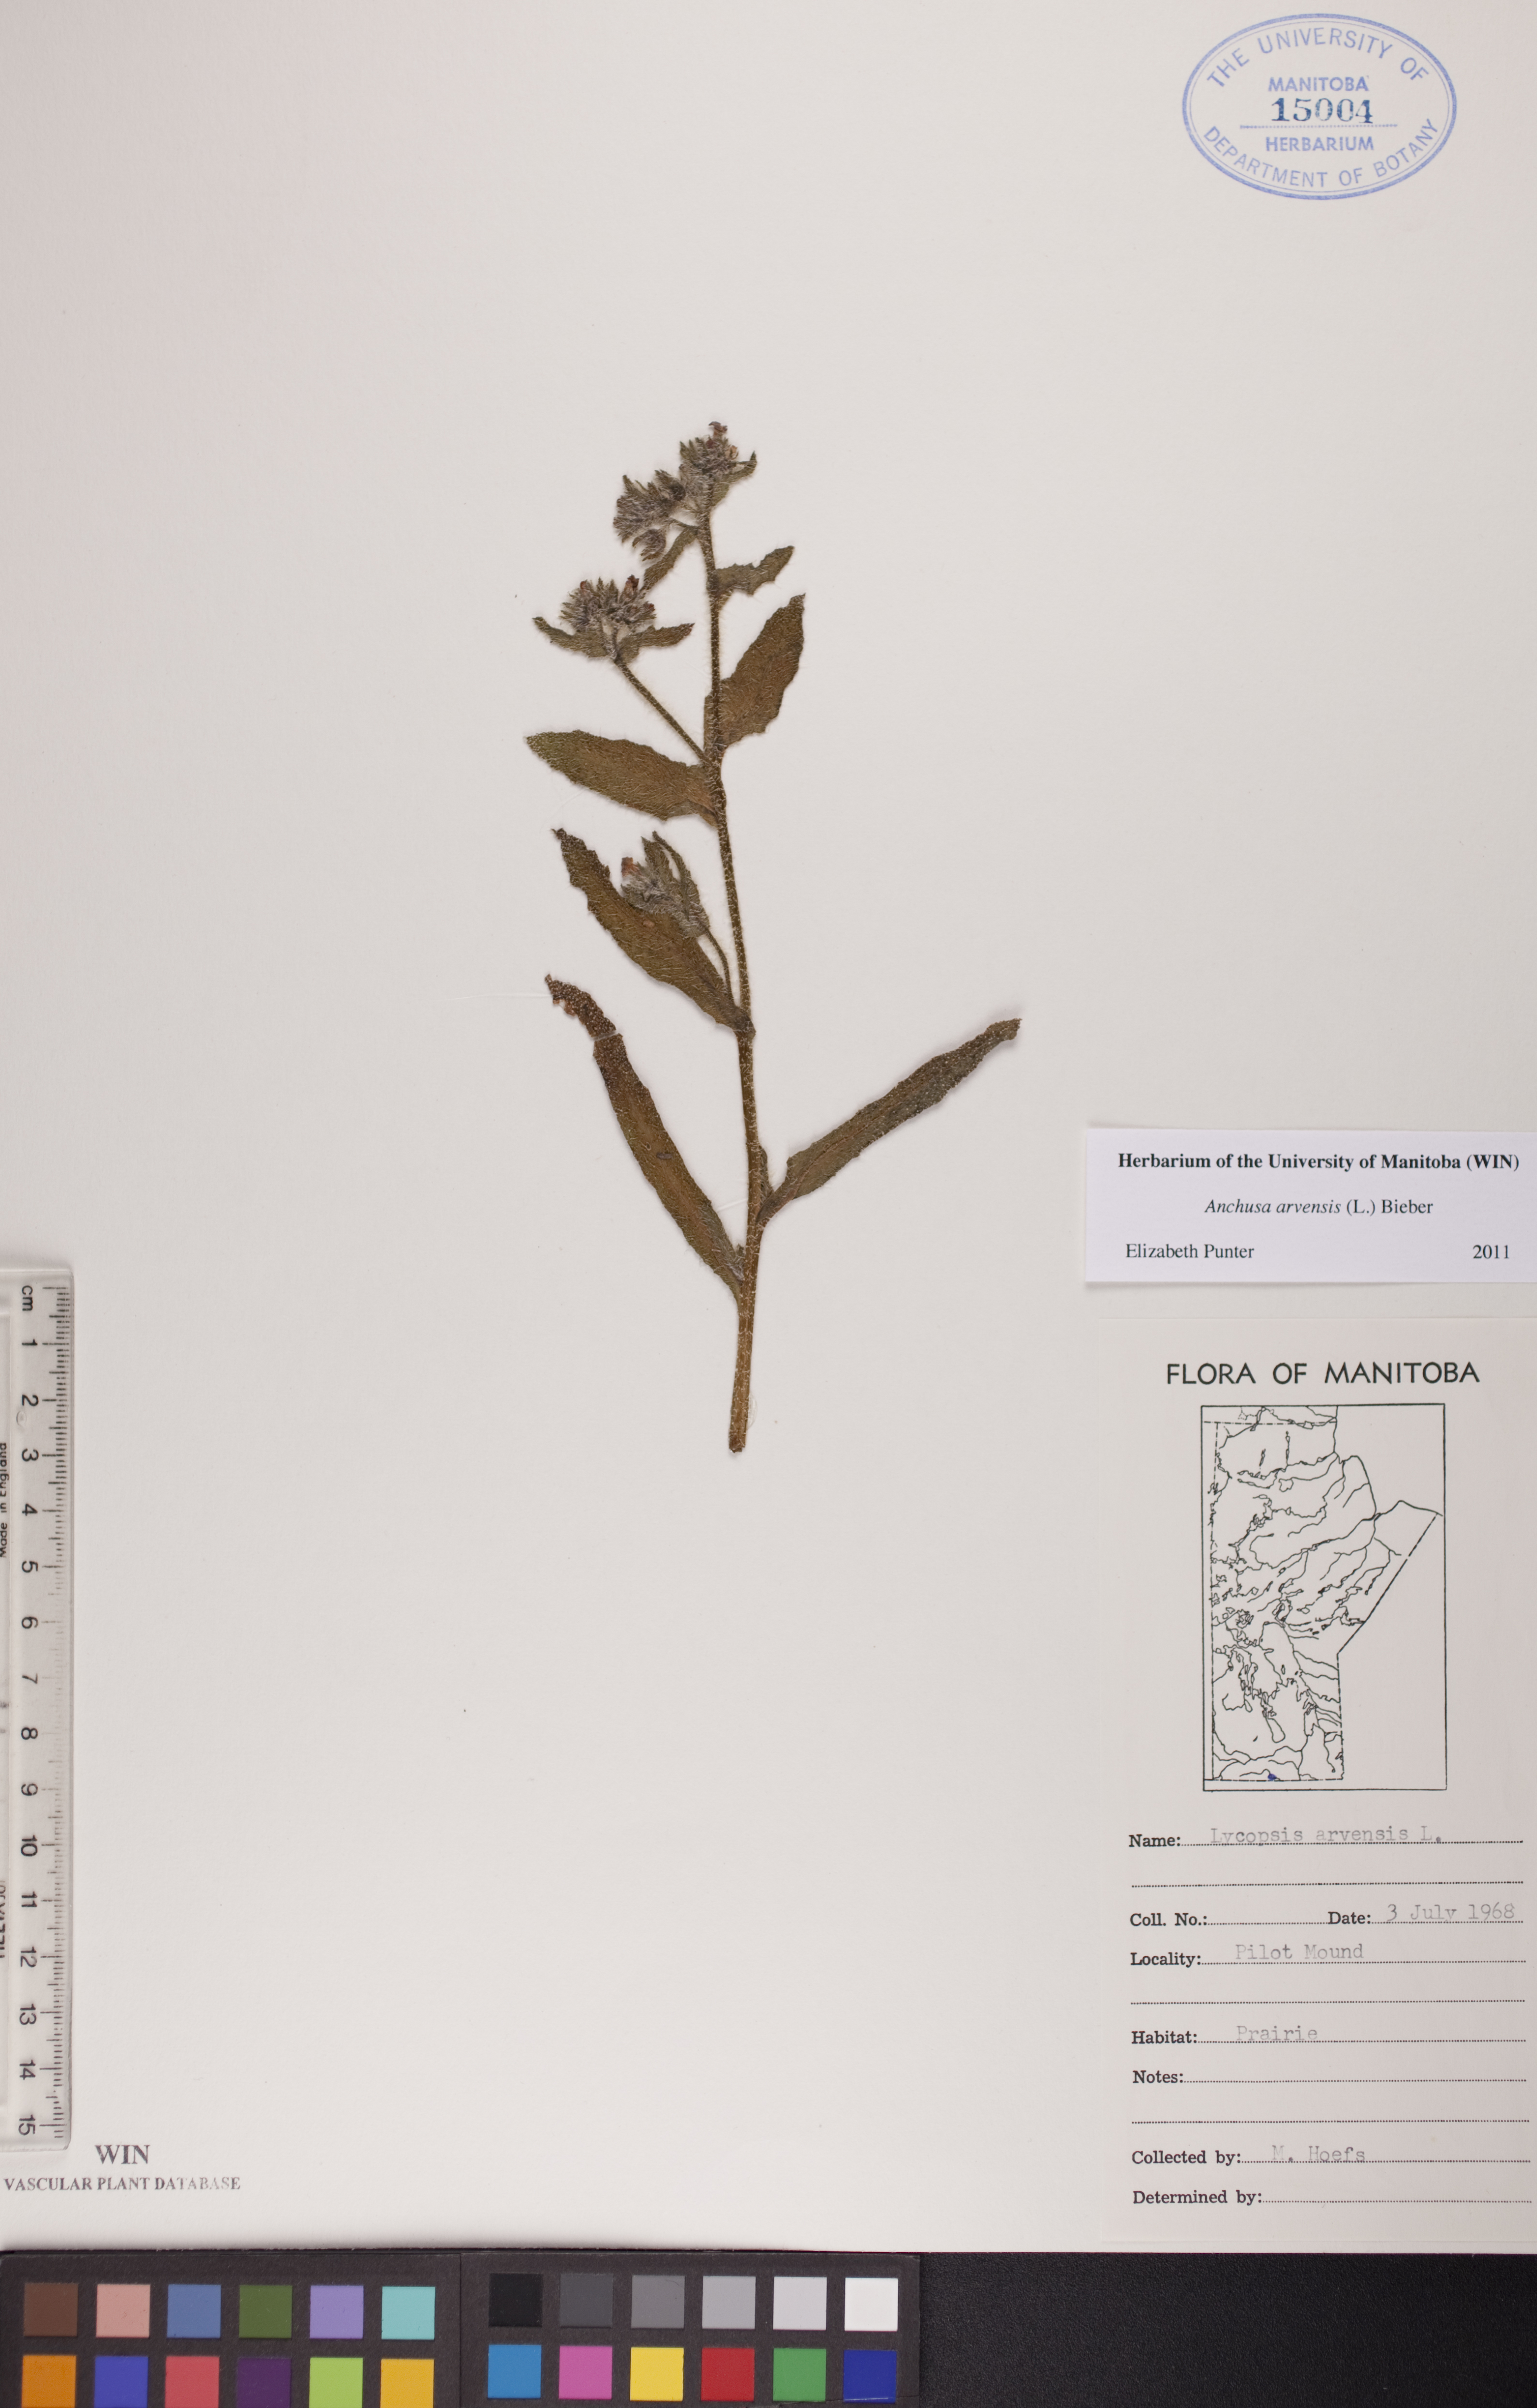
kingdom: Plantae
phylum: Tracheophyta
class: Magnoliopsida
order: Boraginales
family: Boraginaceae
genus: Lycopsis
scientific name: Lycopsis arvensis
